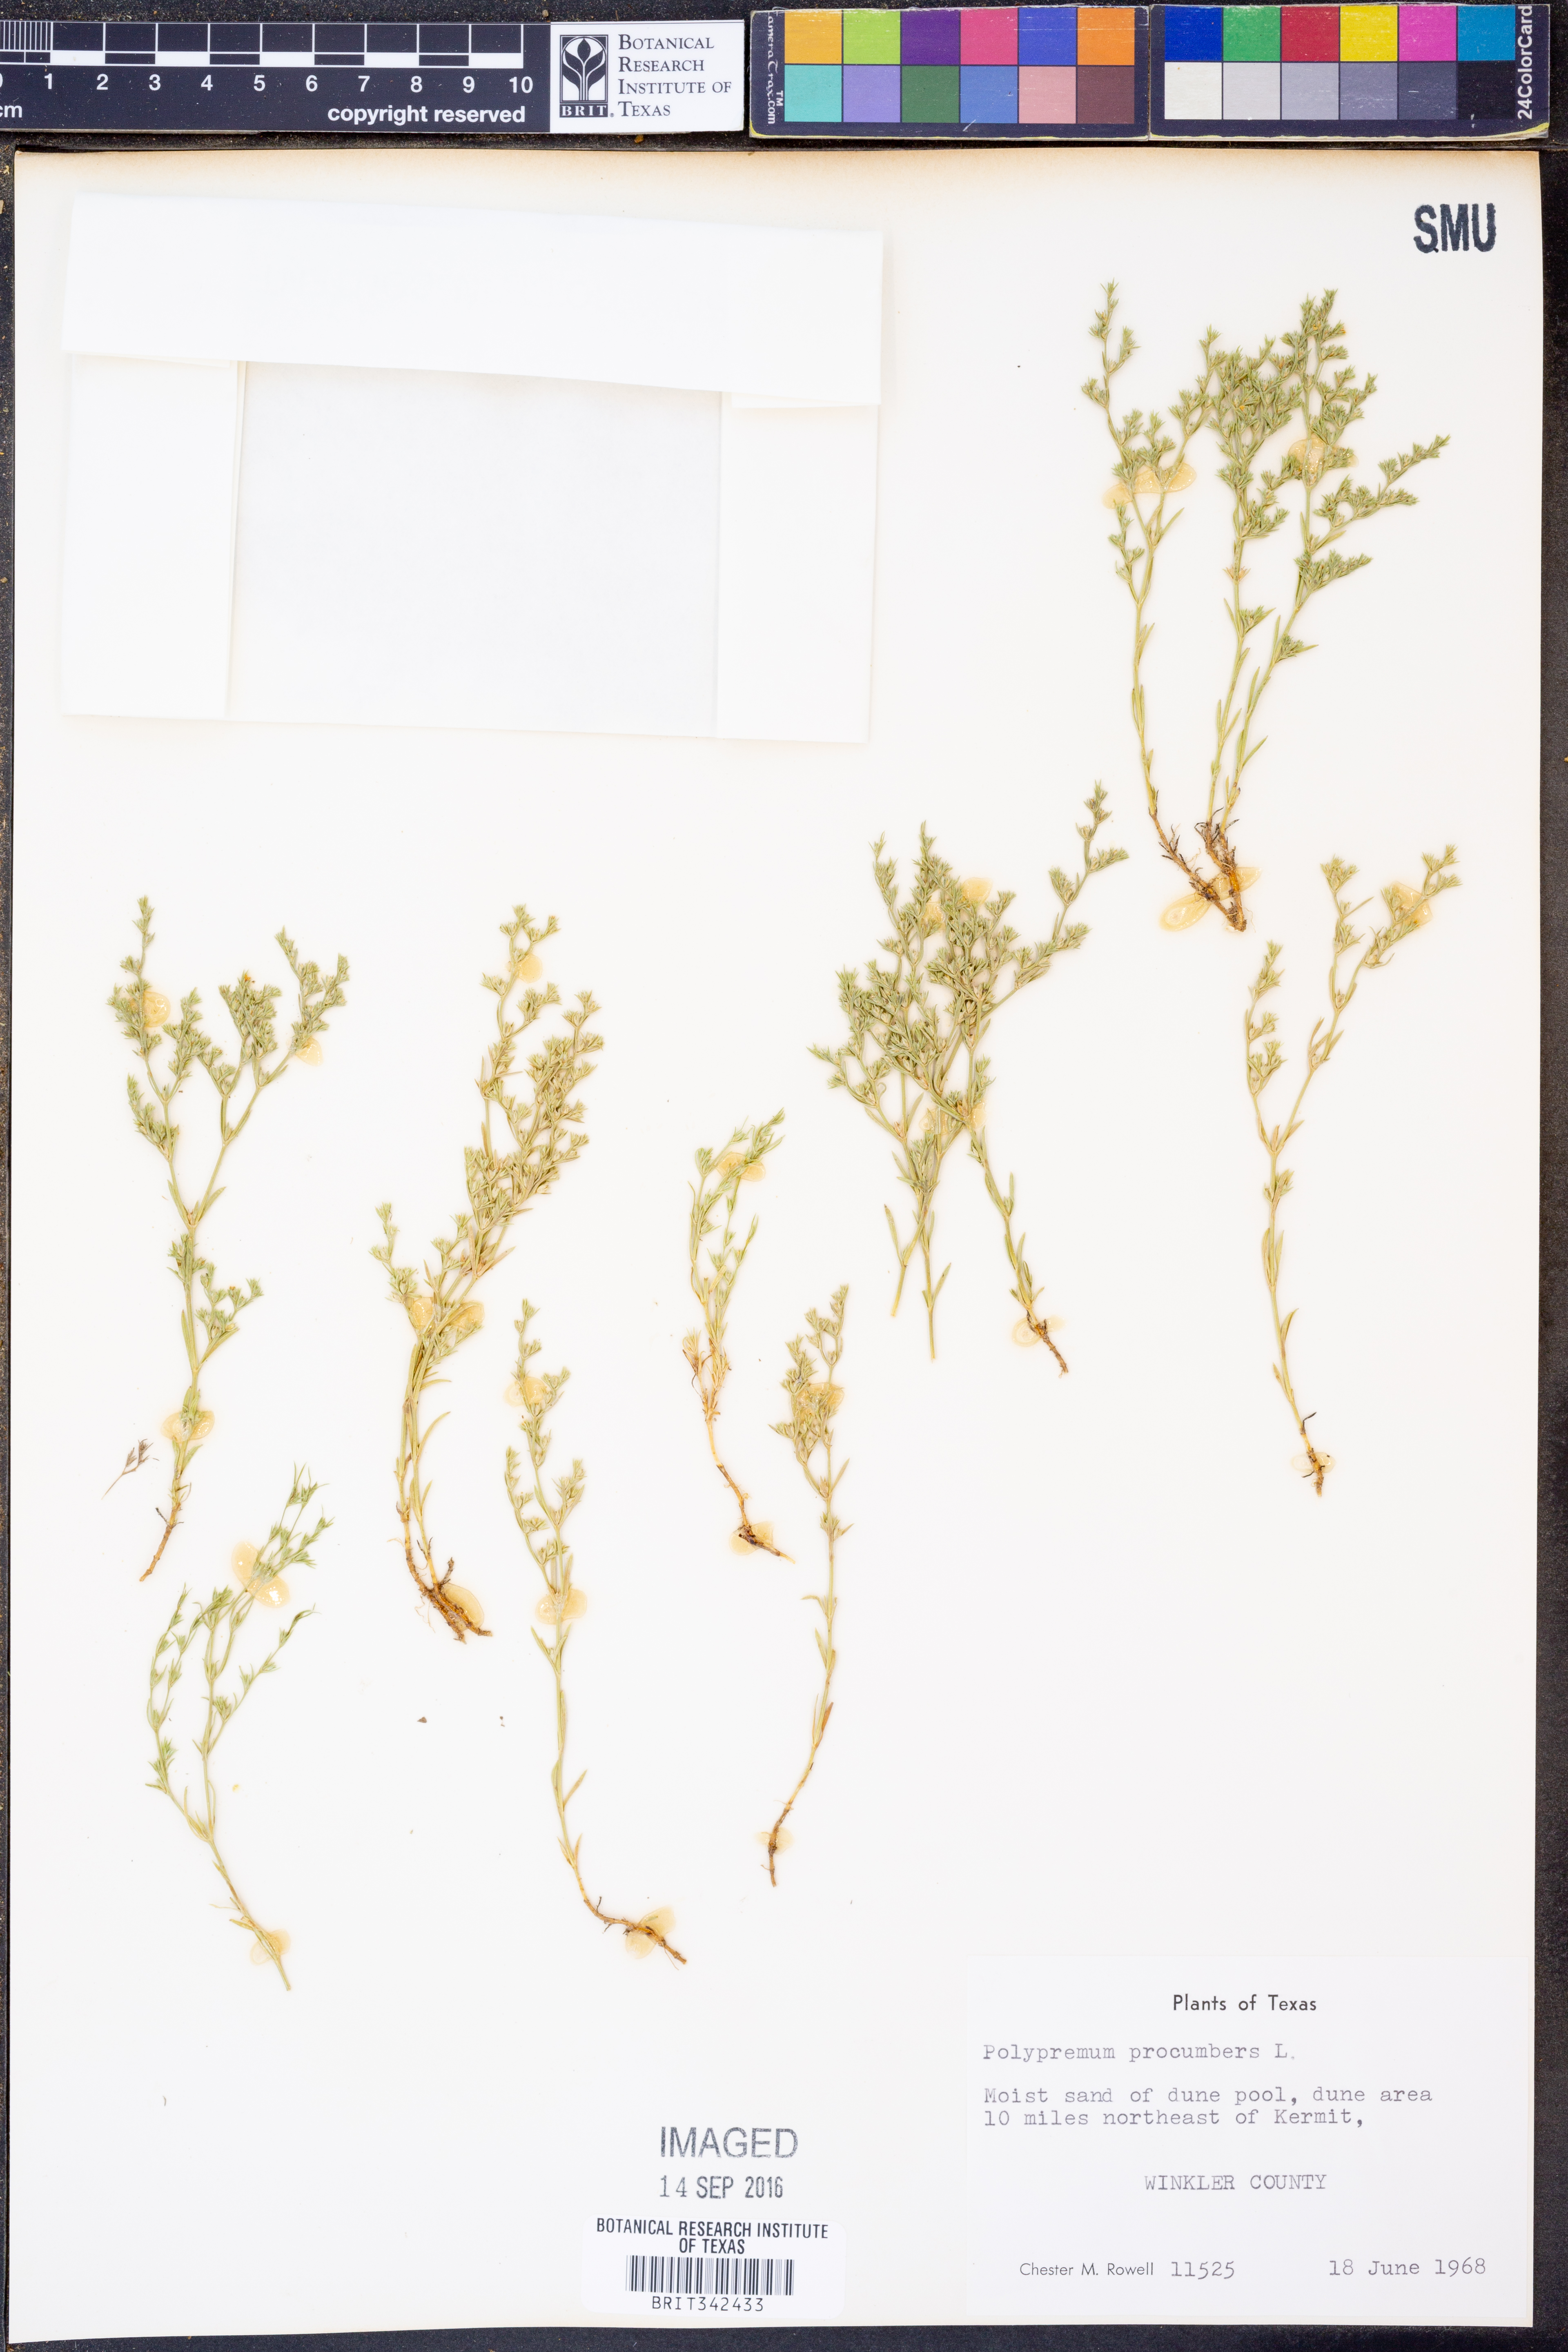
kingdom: Plantae
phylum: Tracheophyta
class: Magnoliopsida
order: Lamiales
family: Tetrachondraceae
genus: Polypremum
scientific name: Polypremum procumbens
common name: Juniper-leaf
